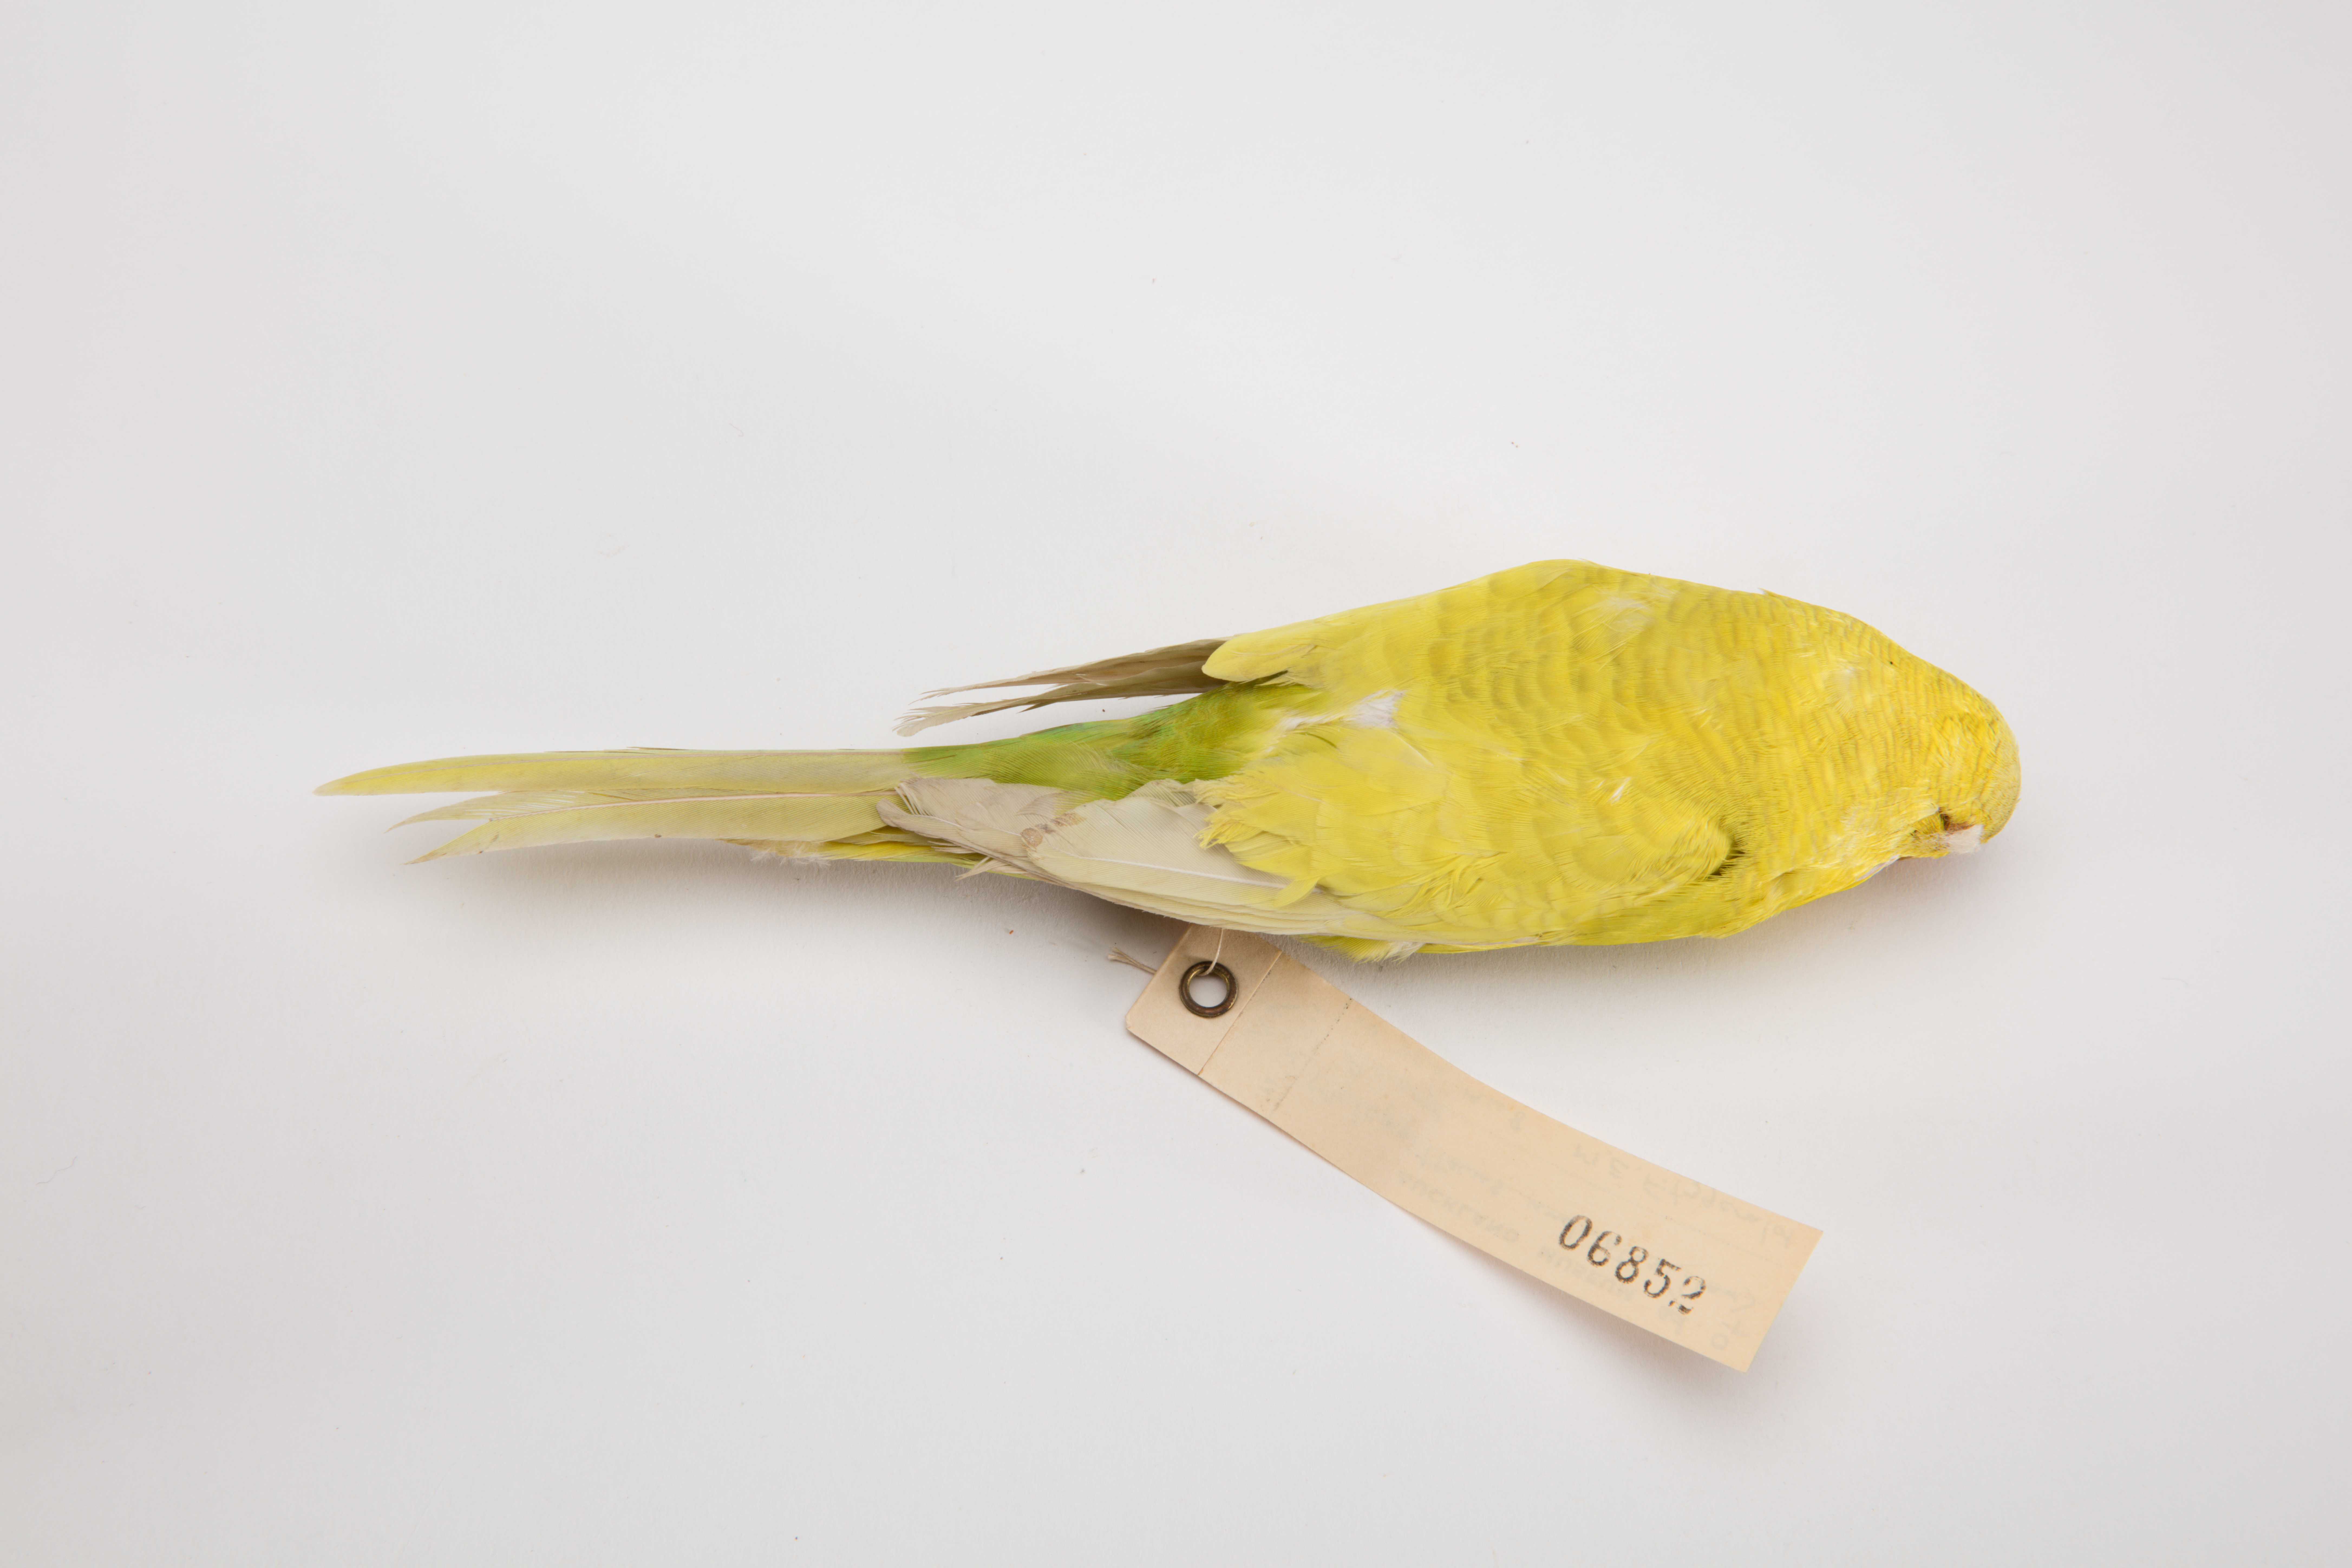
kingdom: Animalia
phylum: Chordata
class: Aves
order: Psittaciformes
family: Psittacidae
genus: Melopsittacus
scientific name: Melopsittacus undulatus
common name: Budgerigar
